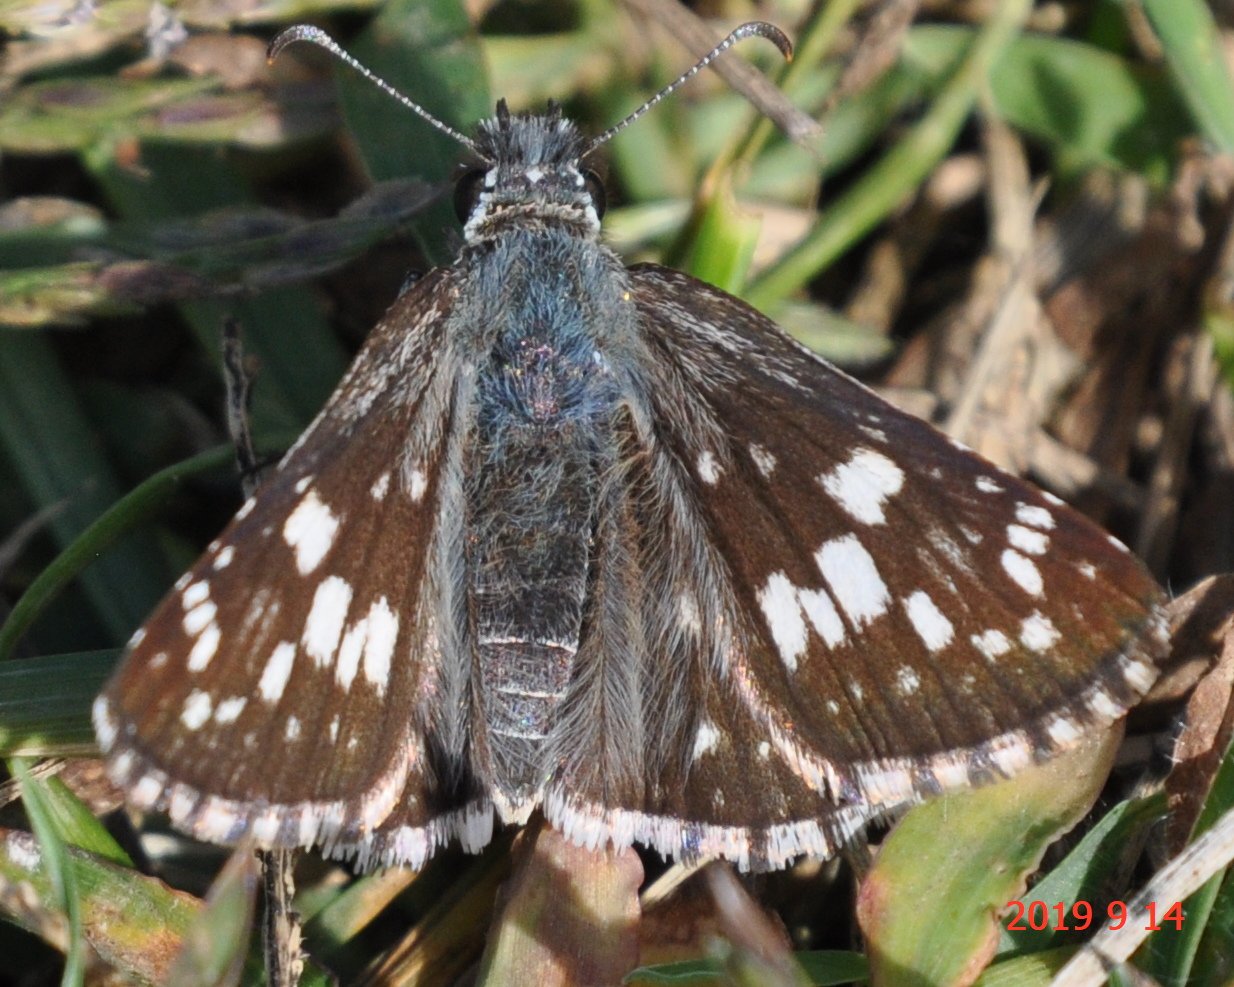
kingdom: Animalia
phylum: Arthropoda
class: Insecta
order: Lepidoptera
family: Hesperiidae
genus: Pyrgus
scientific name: Pyrgus communis
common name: Common Checkered-Skipper
